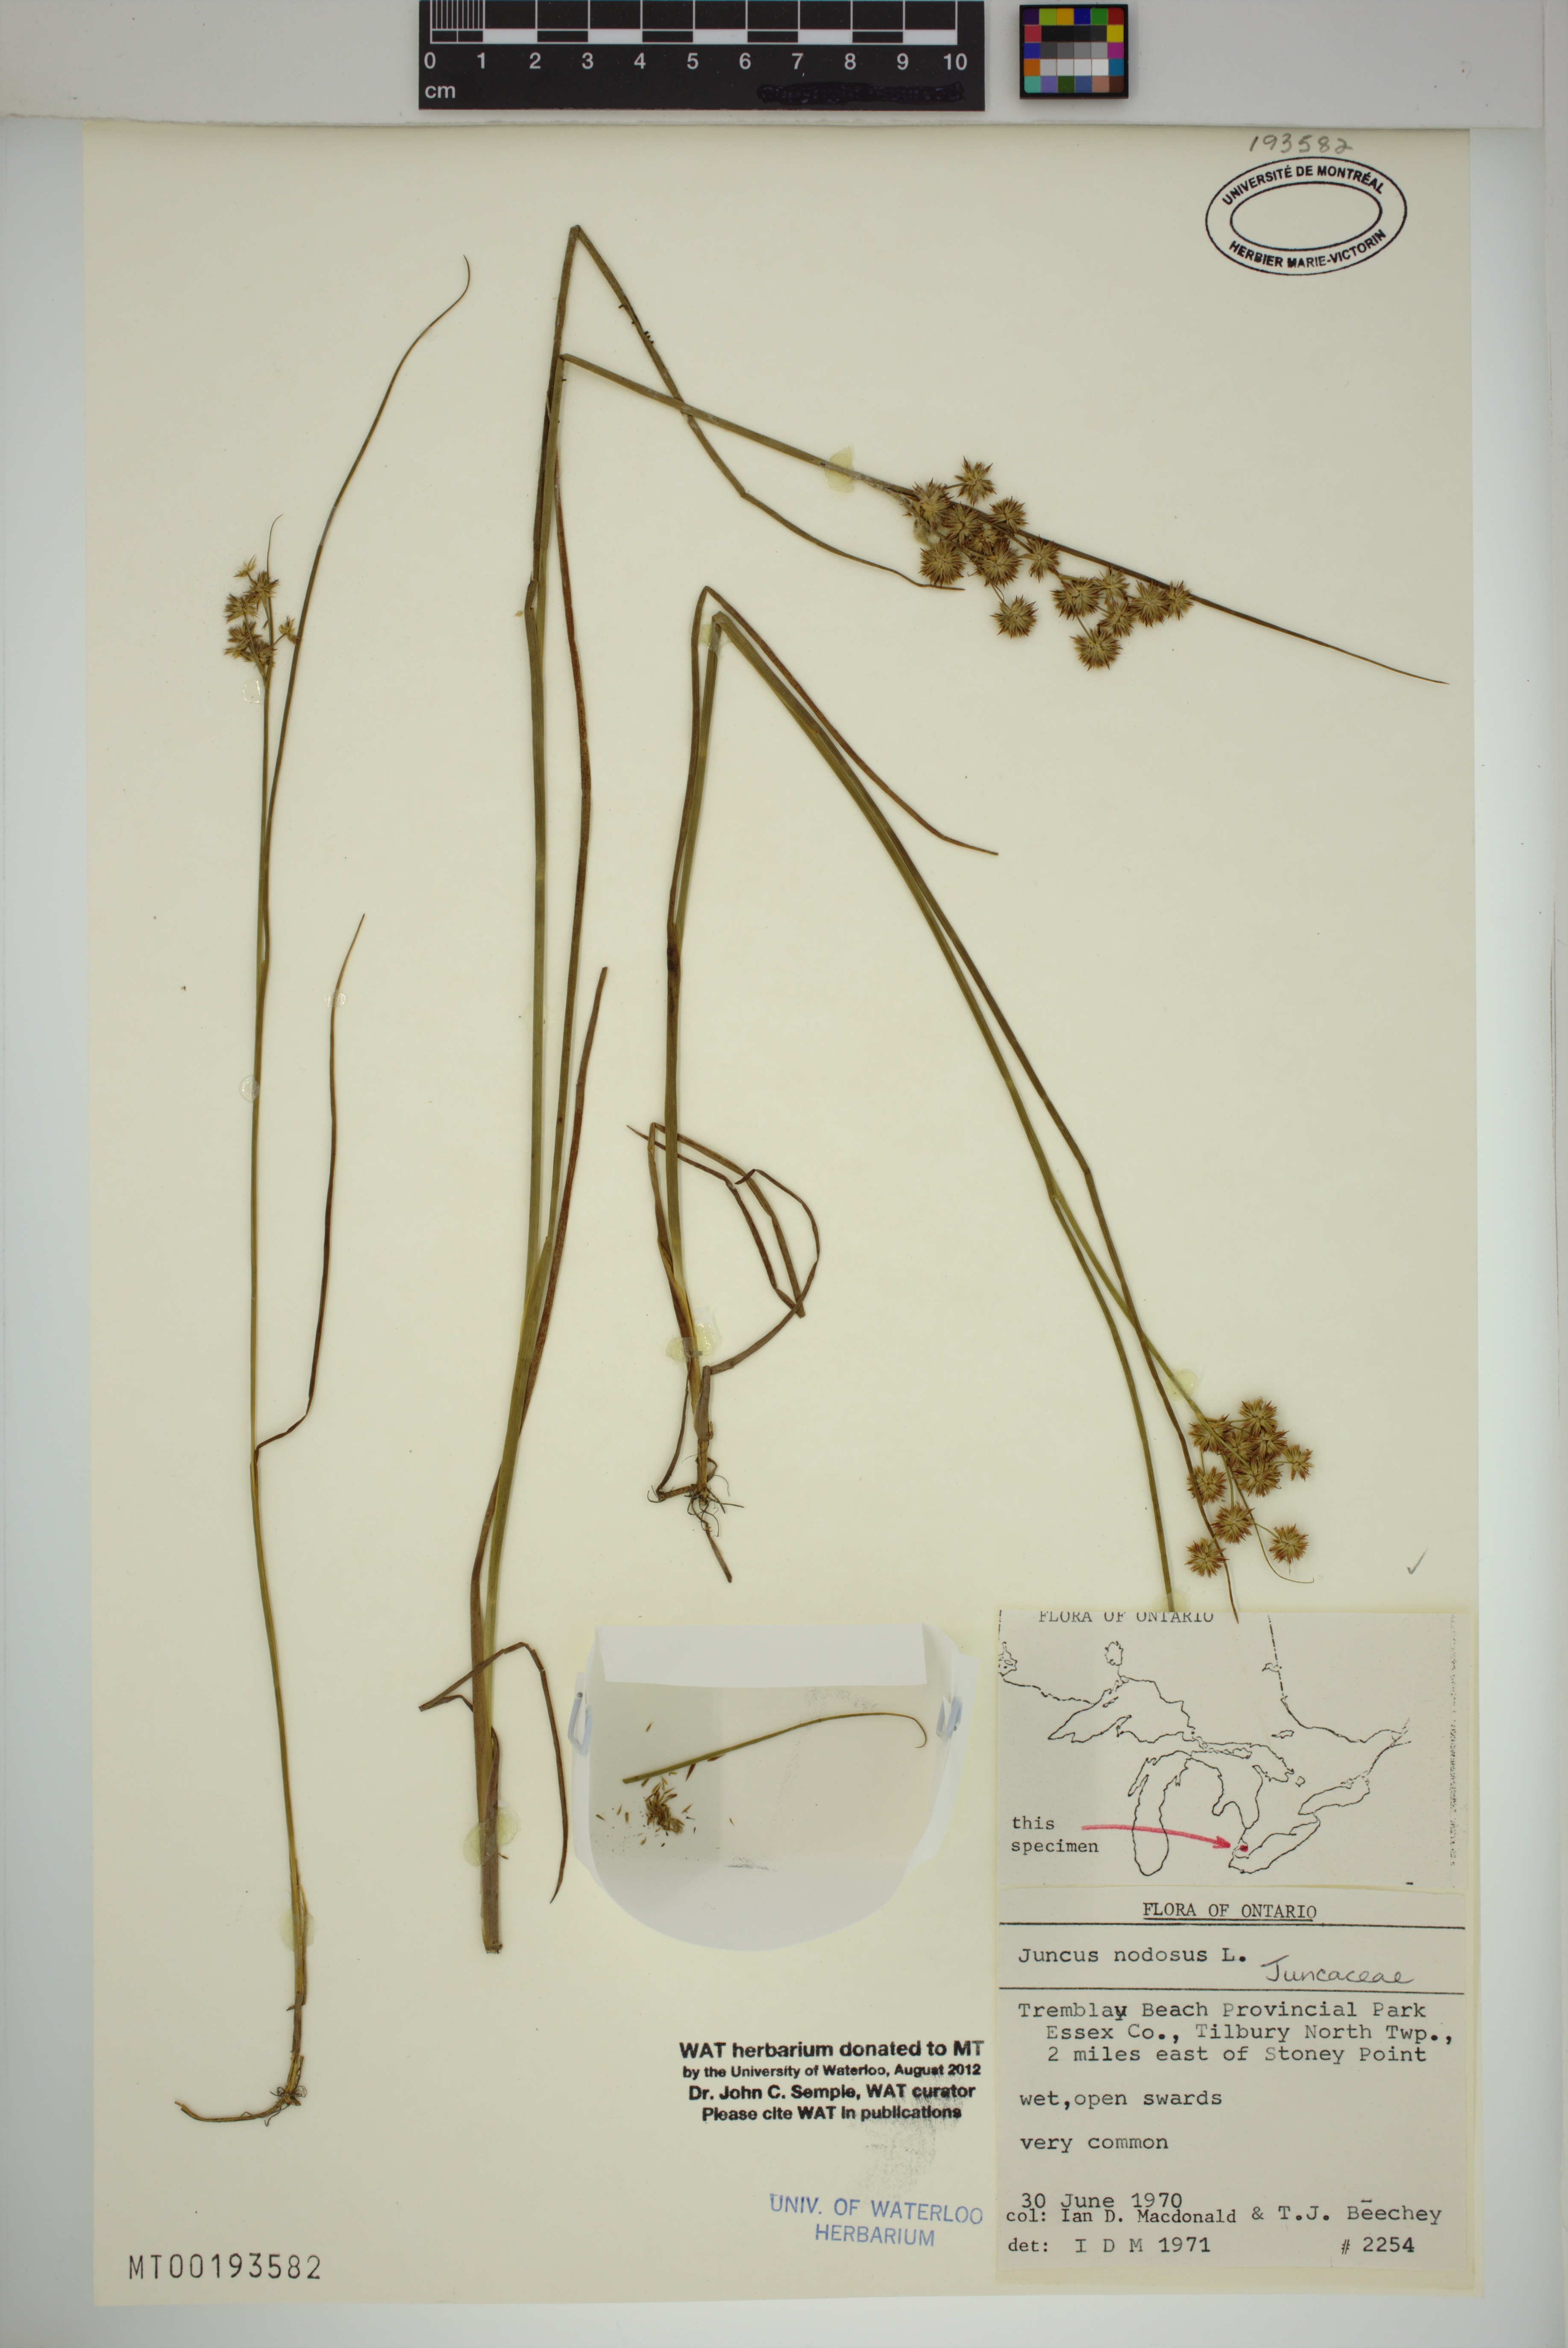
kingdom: Plantae
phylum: Tracheophyta
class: Liliopsida
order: Poales
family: Juncaceae
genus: Juncus
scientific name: Juncus nodosus
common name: Knotted rush
